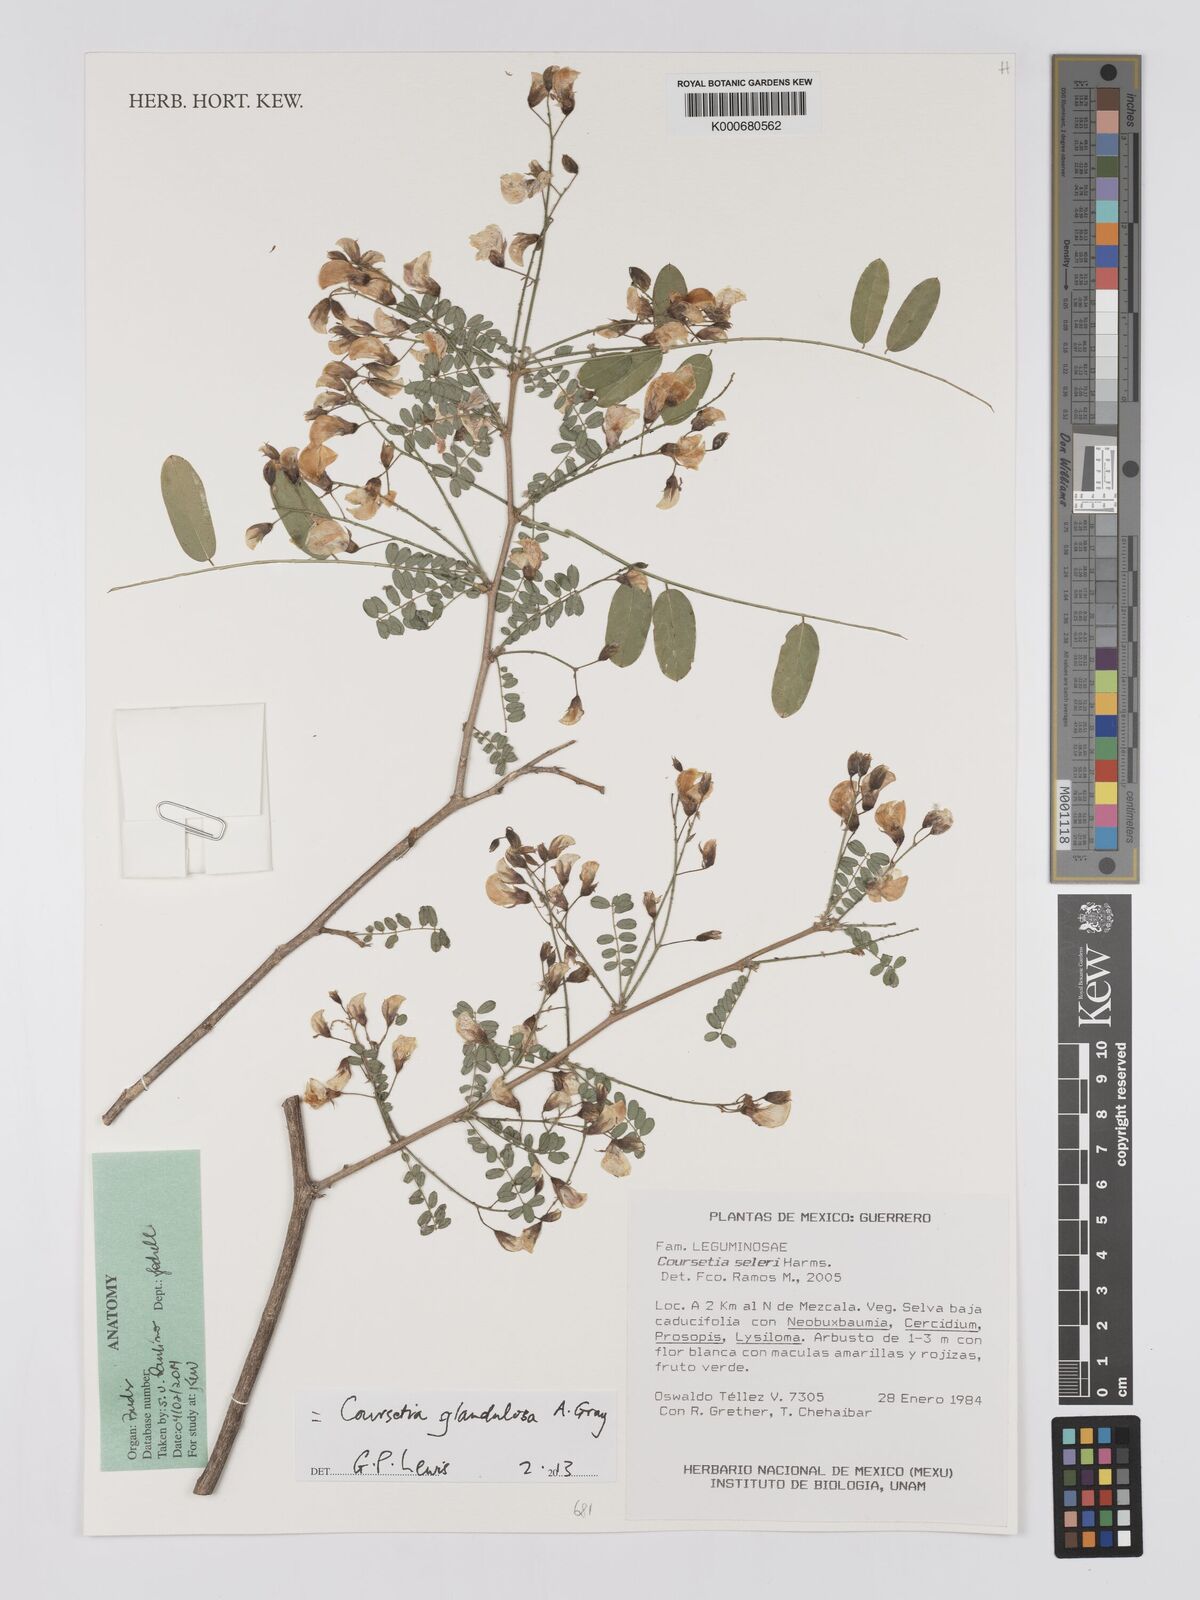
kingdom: Plantae
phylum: Tracheophyta
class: Magnoliopsida
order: Fabales
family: Fabaceae
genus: Coursetia
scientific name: Coursetia glandulosa
